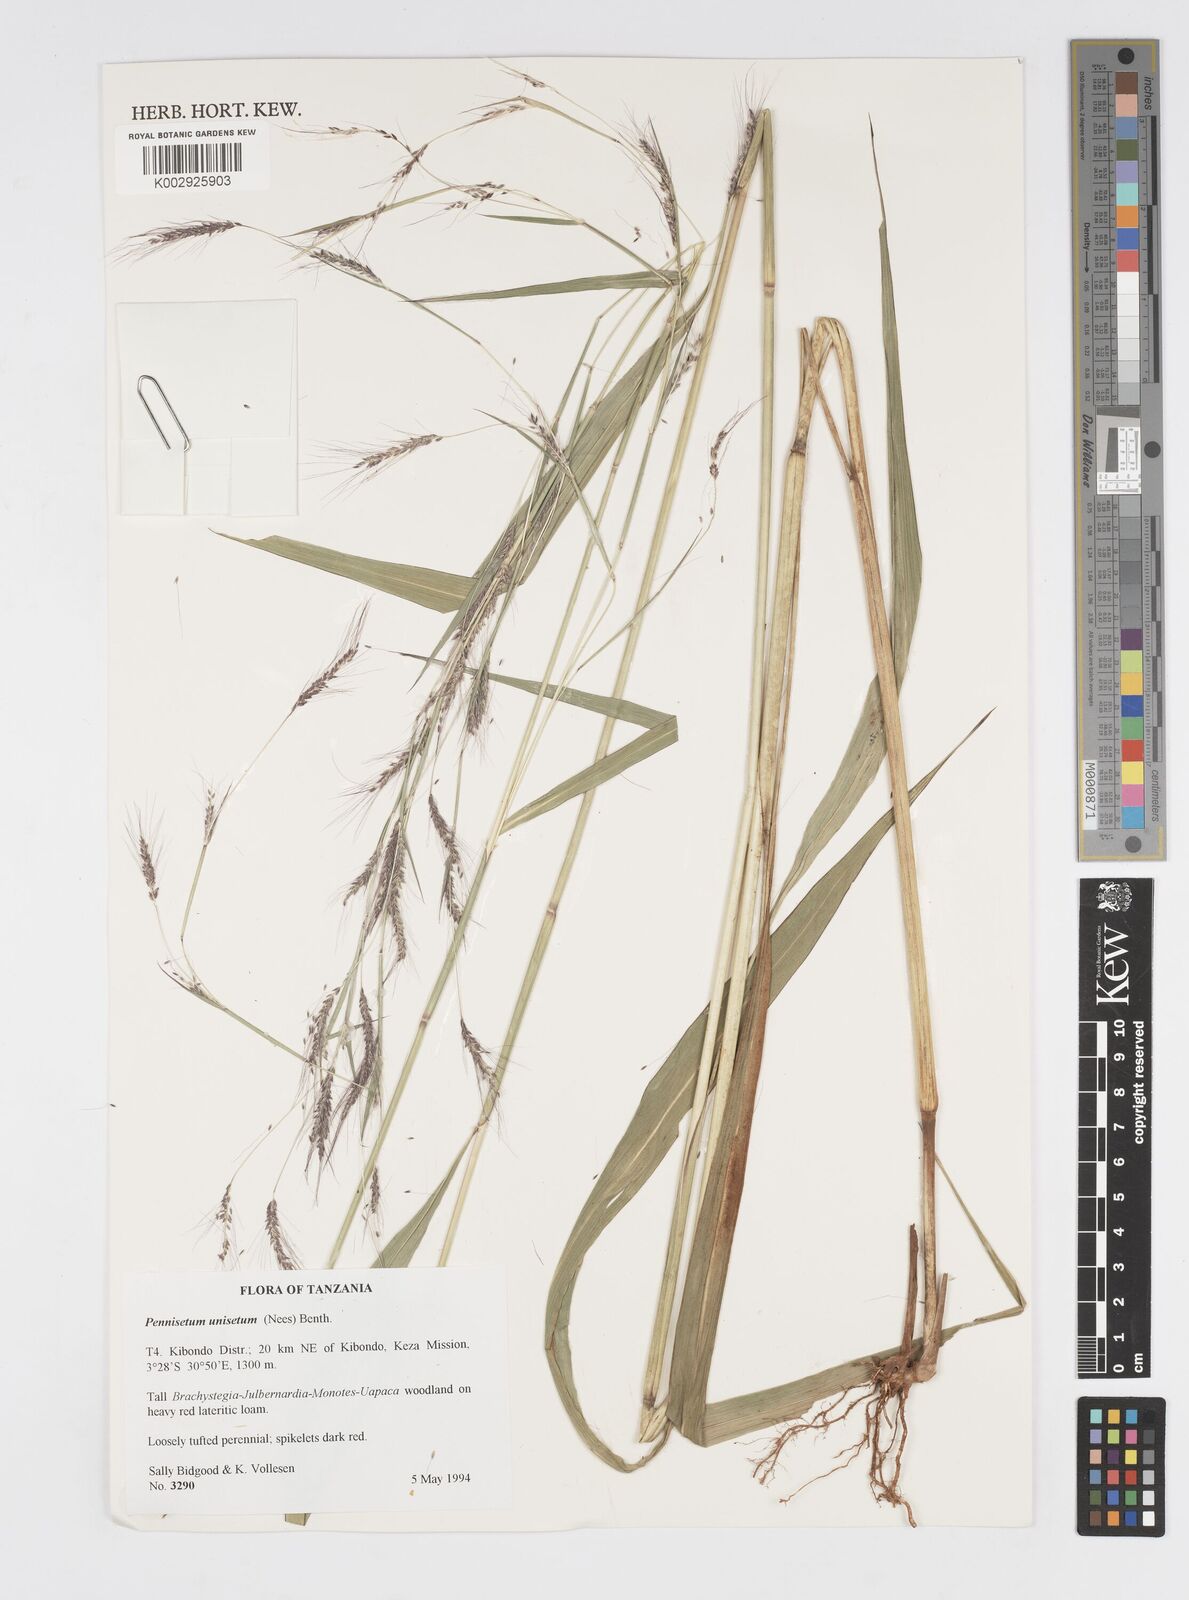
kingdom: Plantae
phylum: Tracheophyta
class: Liliopsida
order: Poales
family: Poaceae
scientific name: Poaceae
